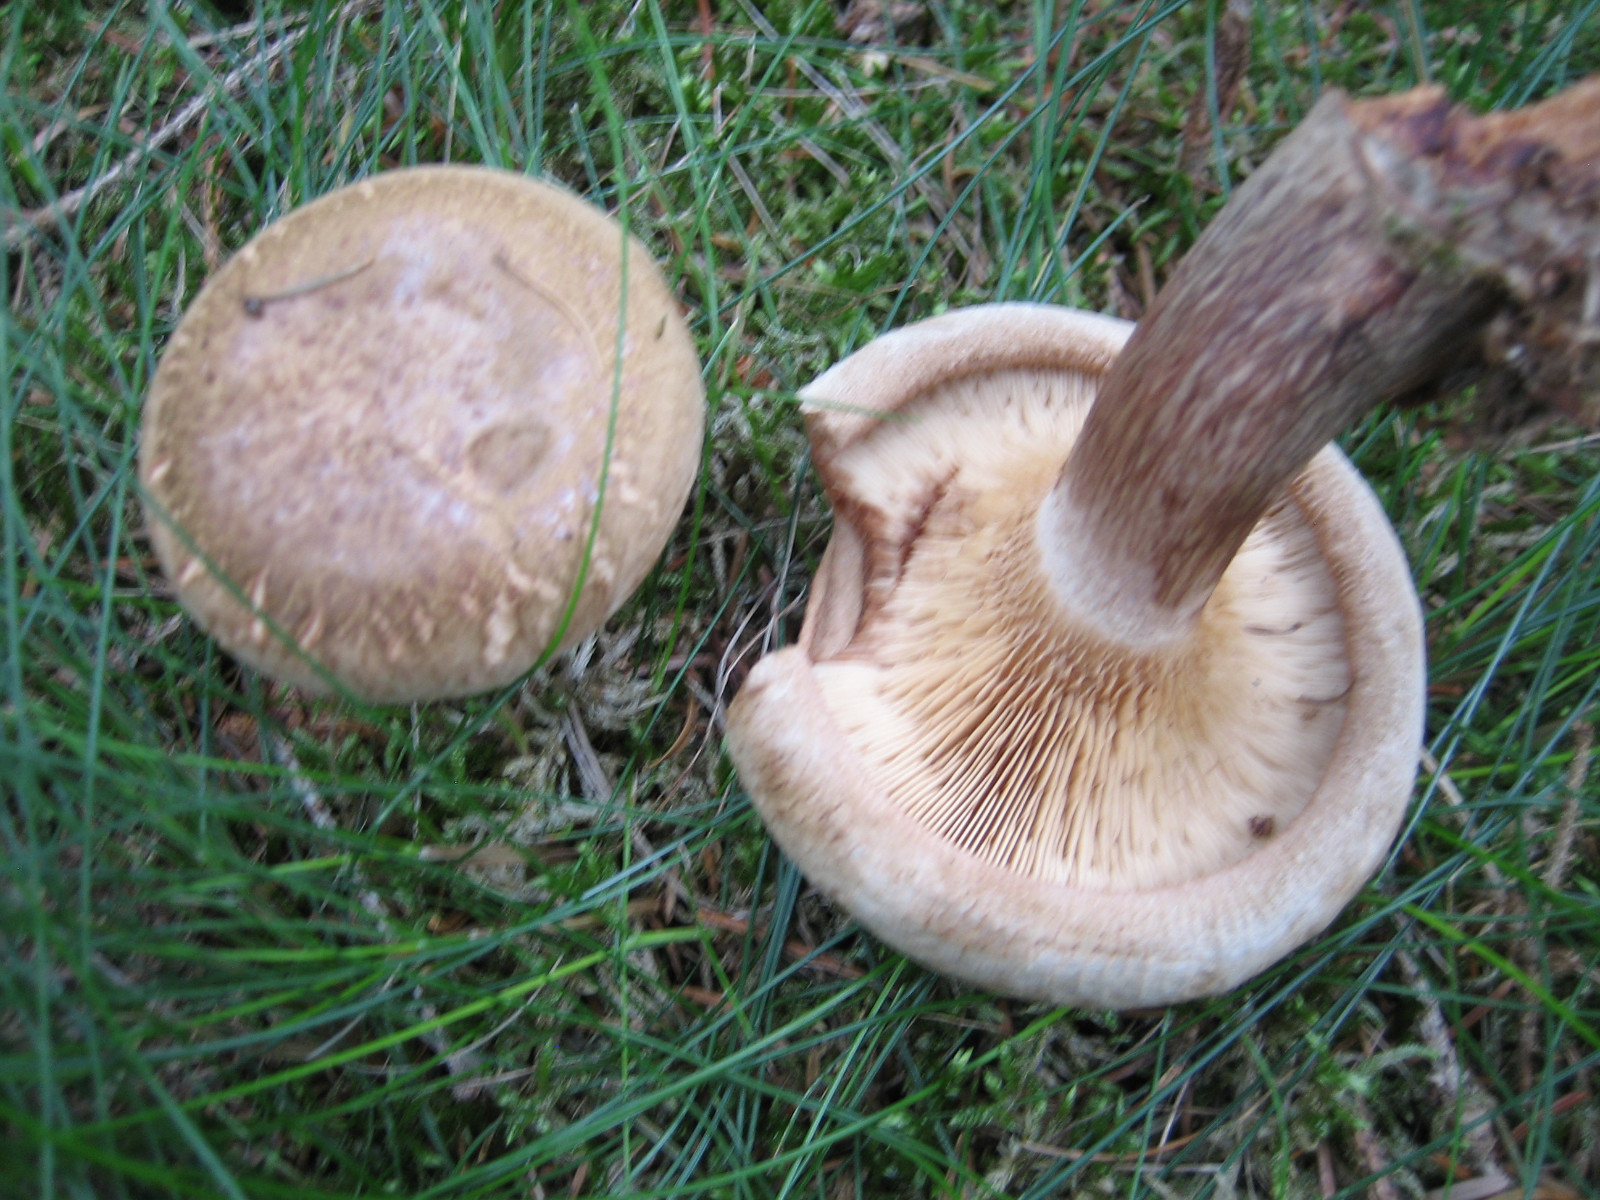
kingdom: Fungi
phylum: Basidiomycota
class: Agaricomycetes
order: Boletales
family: Paxillaceae
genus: Paxillus
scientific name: Paxillus involutus
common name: almindelig netbladhat
